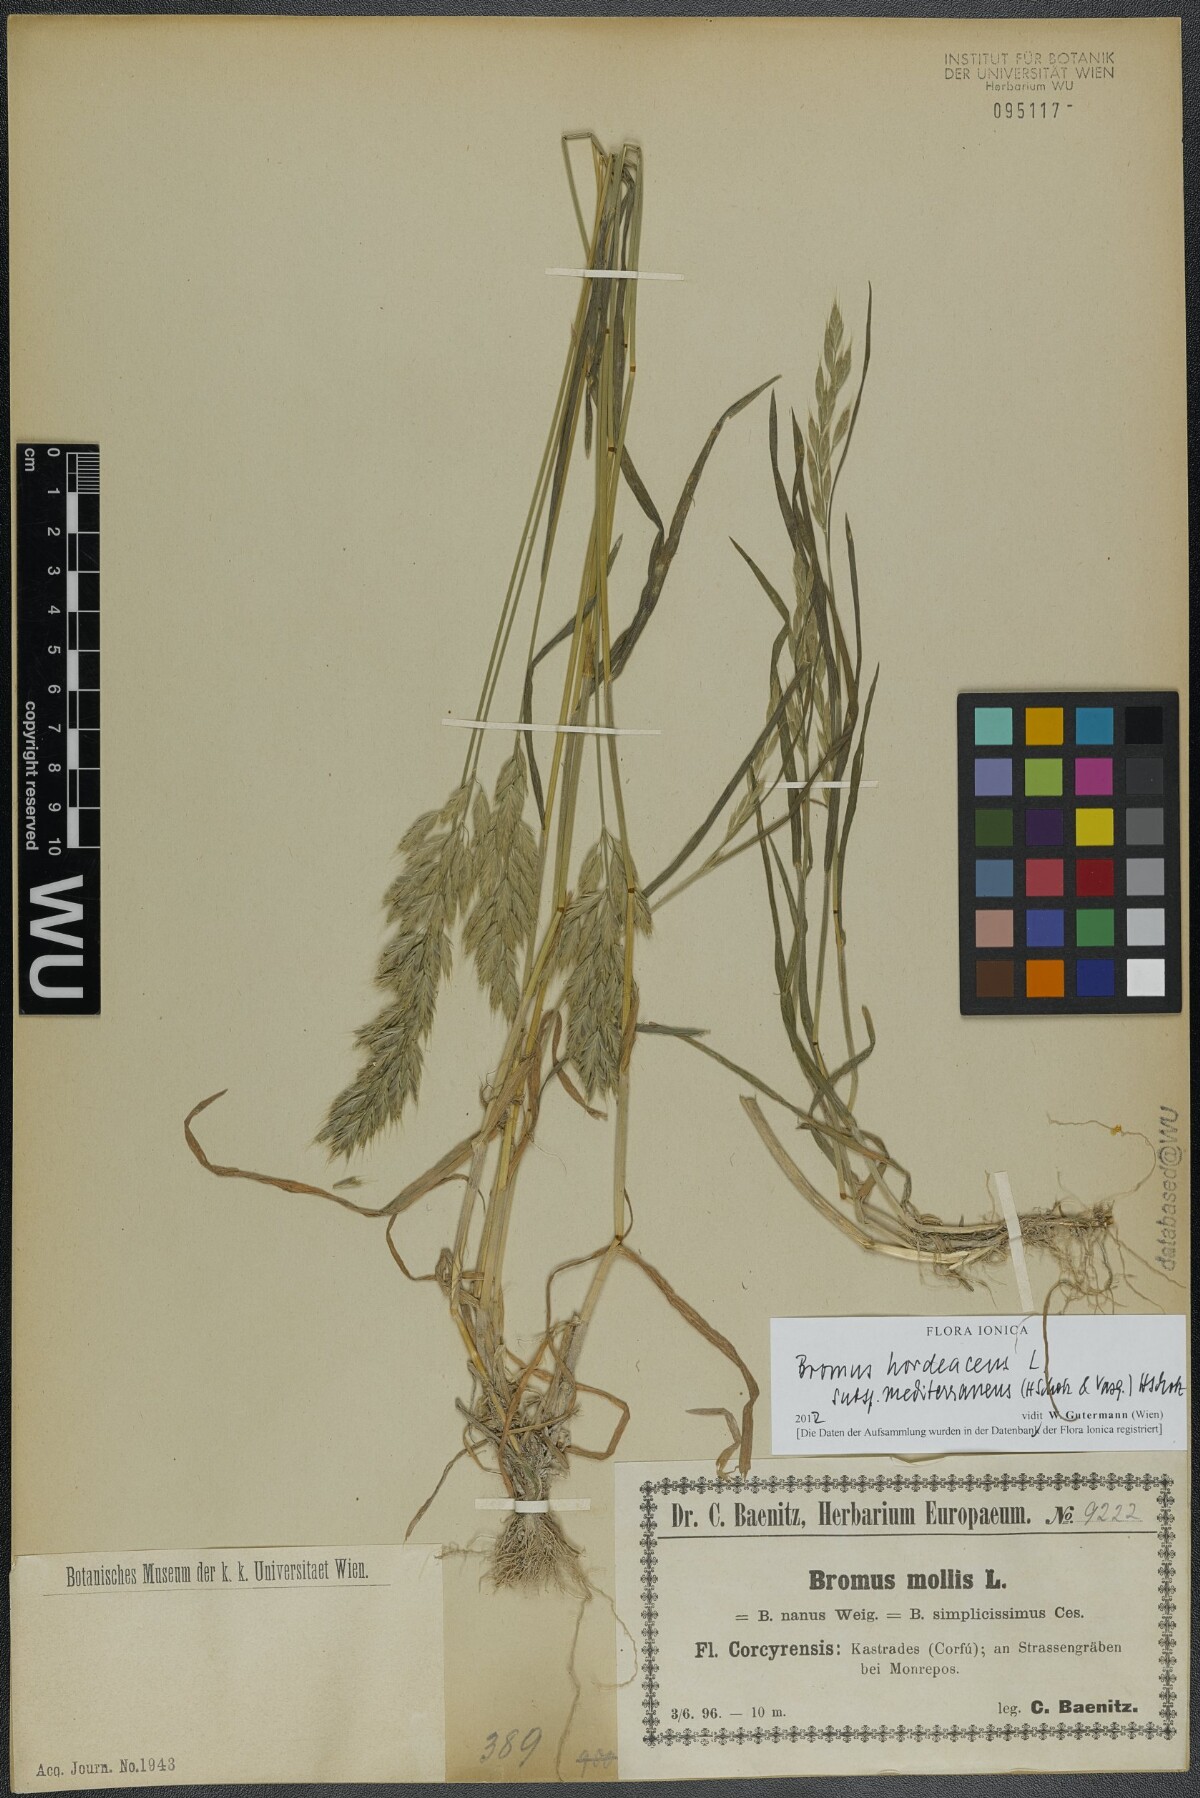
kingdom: Plantae
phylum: Tracheophyta
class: Liliopsida
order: Poales
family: Poaceae
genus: Bromus
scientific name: Bromus hordeaceus
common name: Soft brome
